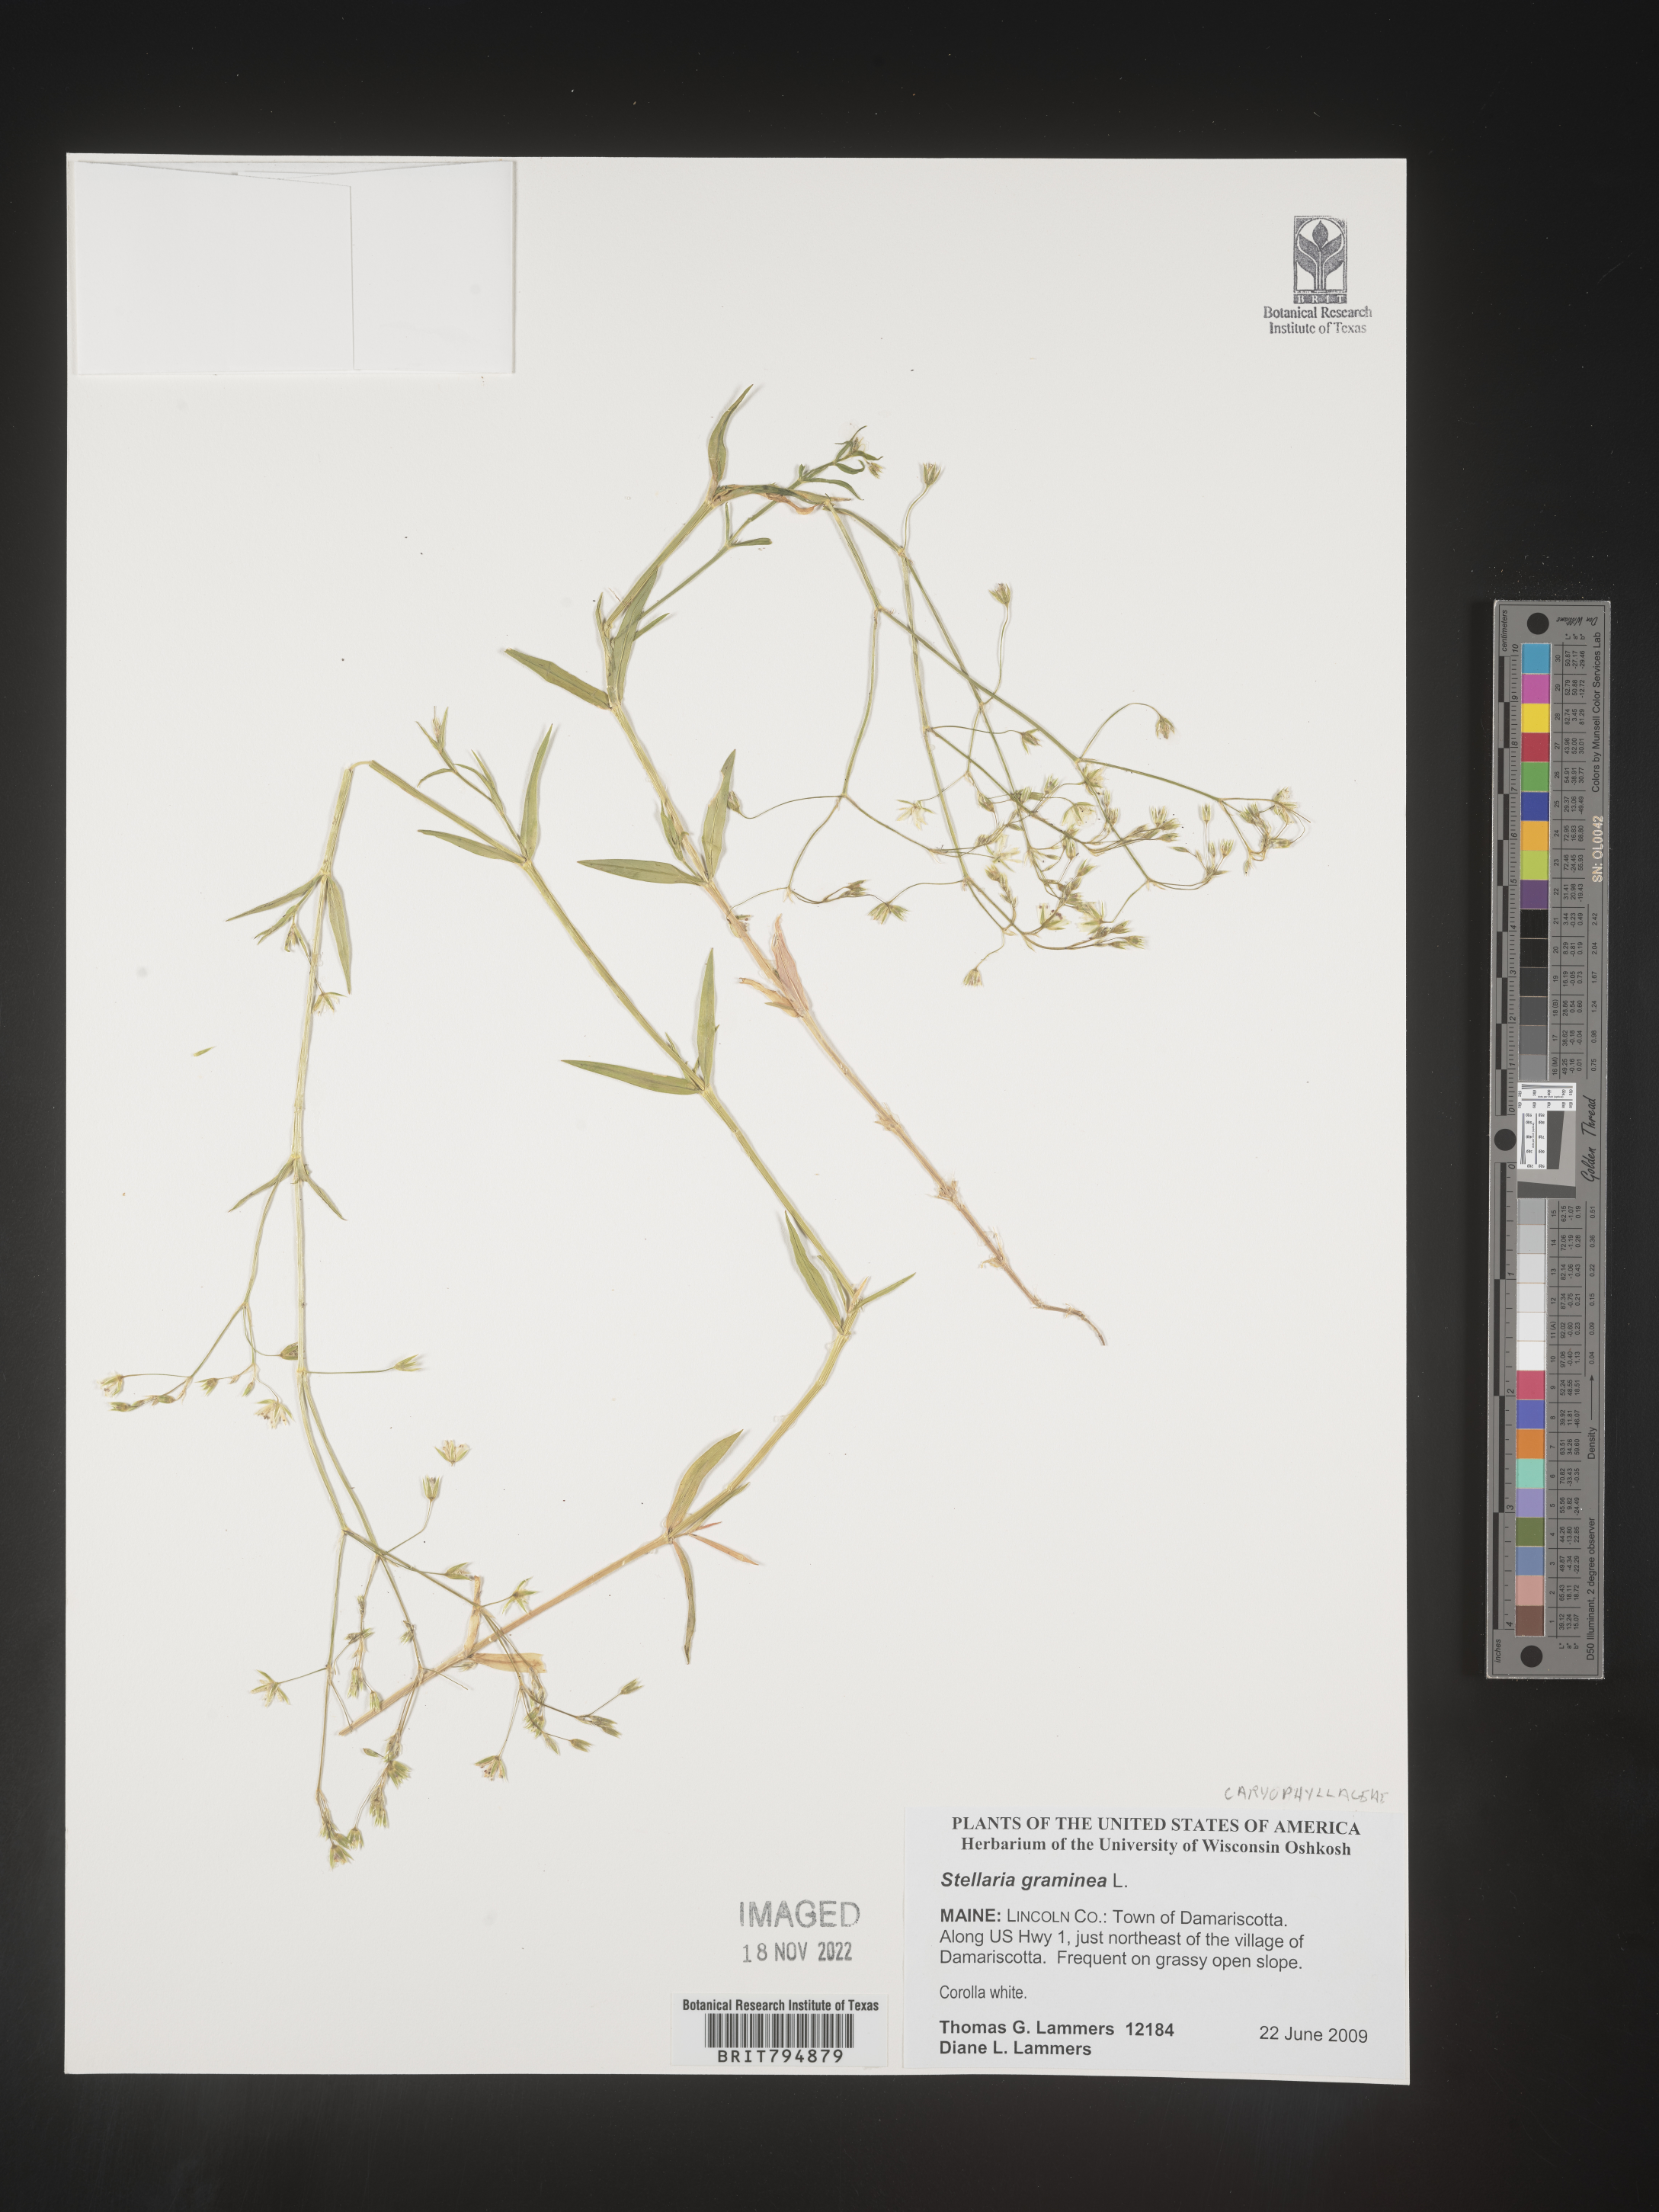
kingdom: Plantae
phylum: Tracheophyta
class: Magnoliopsida
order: Caryophyllales
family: Caryophyllaceae
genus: Stellaria
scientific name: Stellaria graminea
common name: Grass-like starwort
